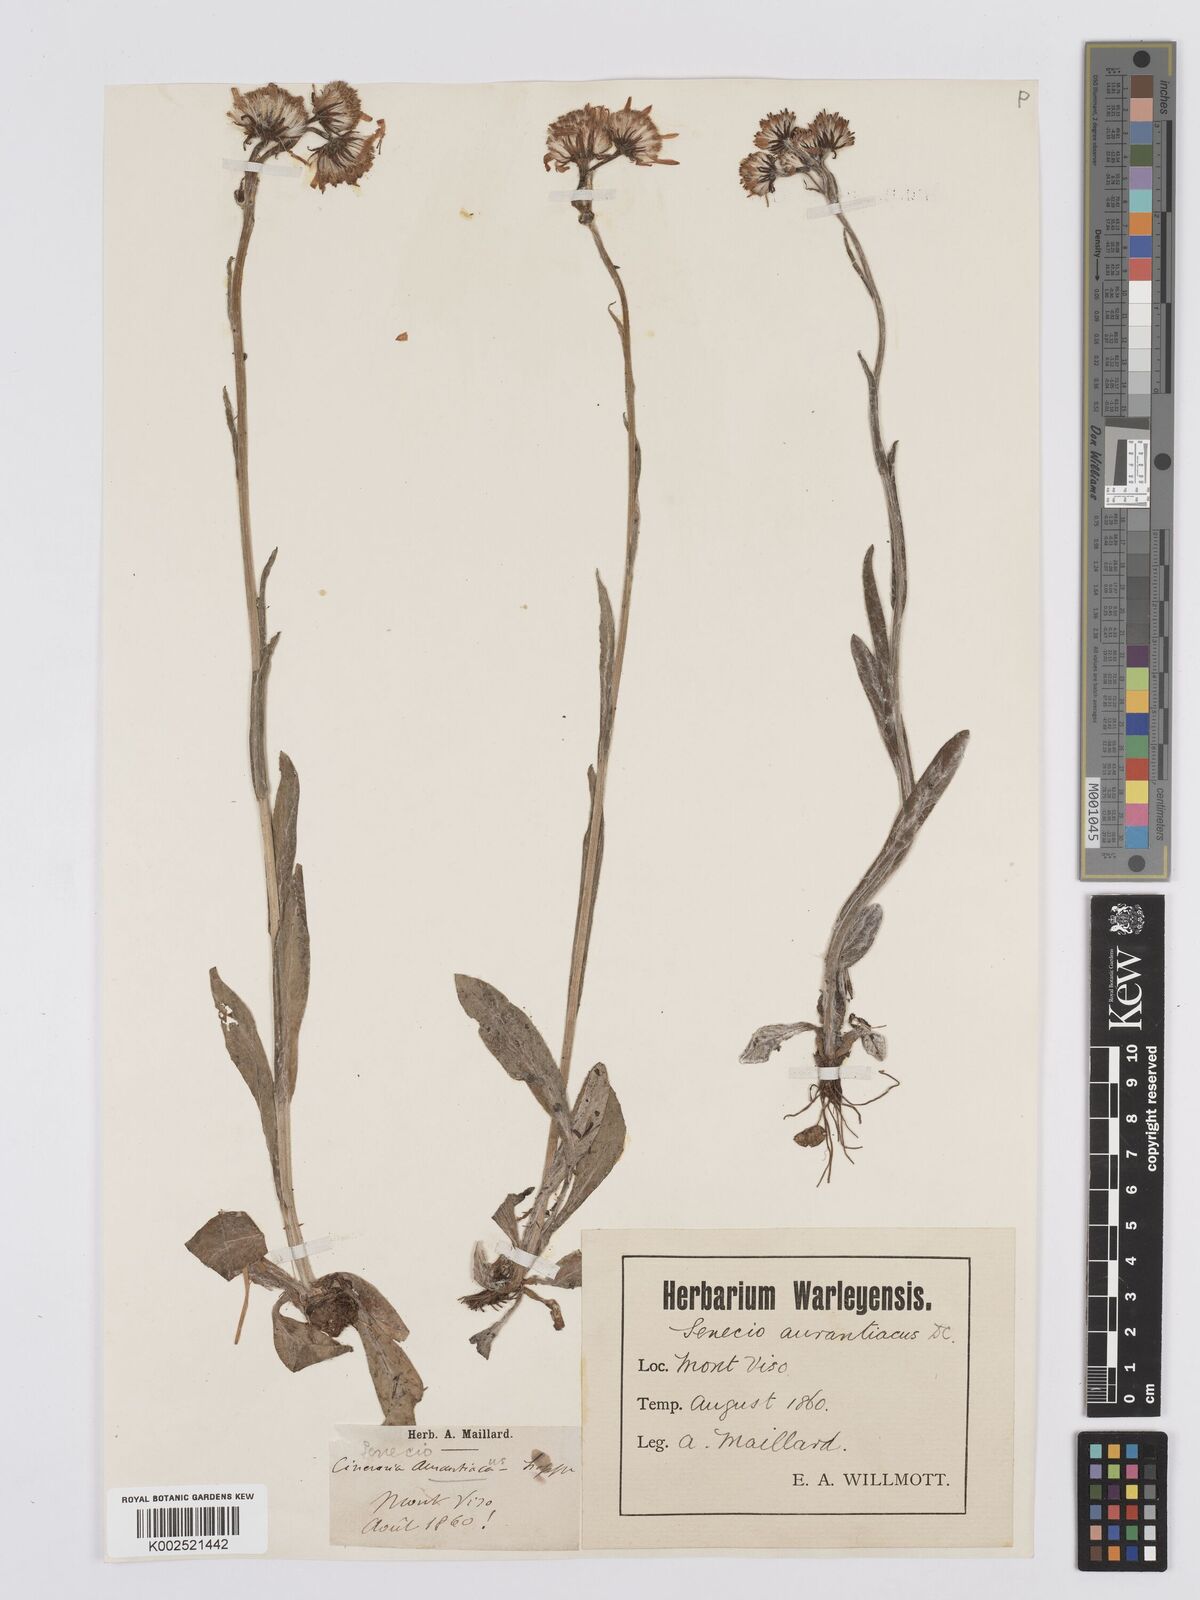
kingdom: Plantae
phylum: Tracheophyta
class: Magnoliopsida
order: Asterales
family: Asteraceae
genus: Tephroseris
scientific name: Tephroseris integrifolia
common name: Field fleawort
